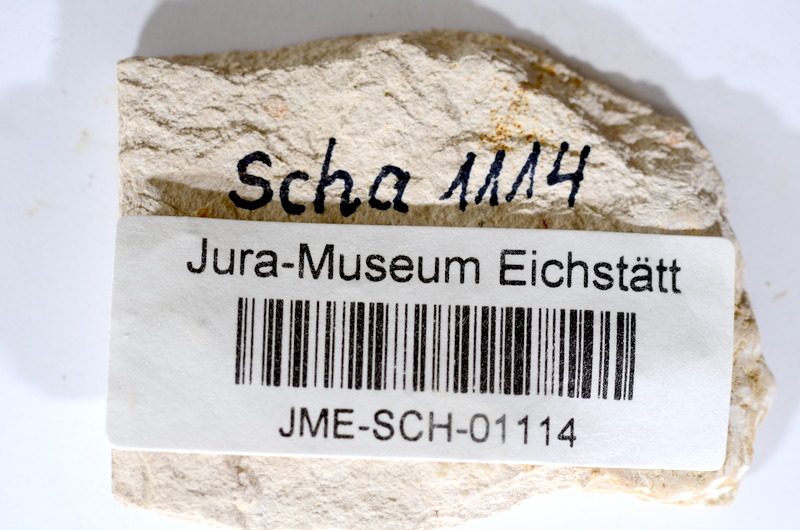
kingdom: Animalia
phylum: Chordata
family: Ascalaboidae
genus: Tharsis
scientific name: Tharsis dubius
